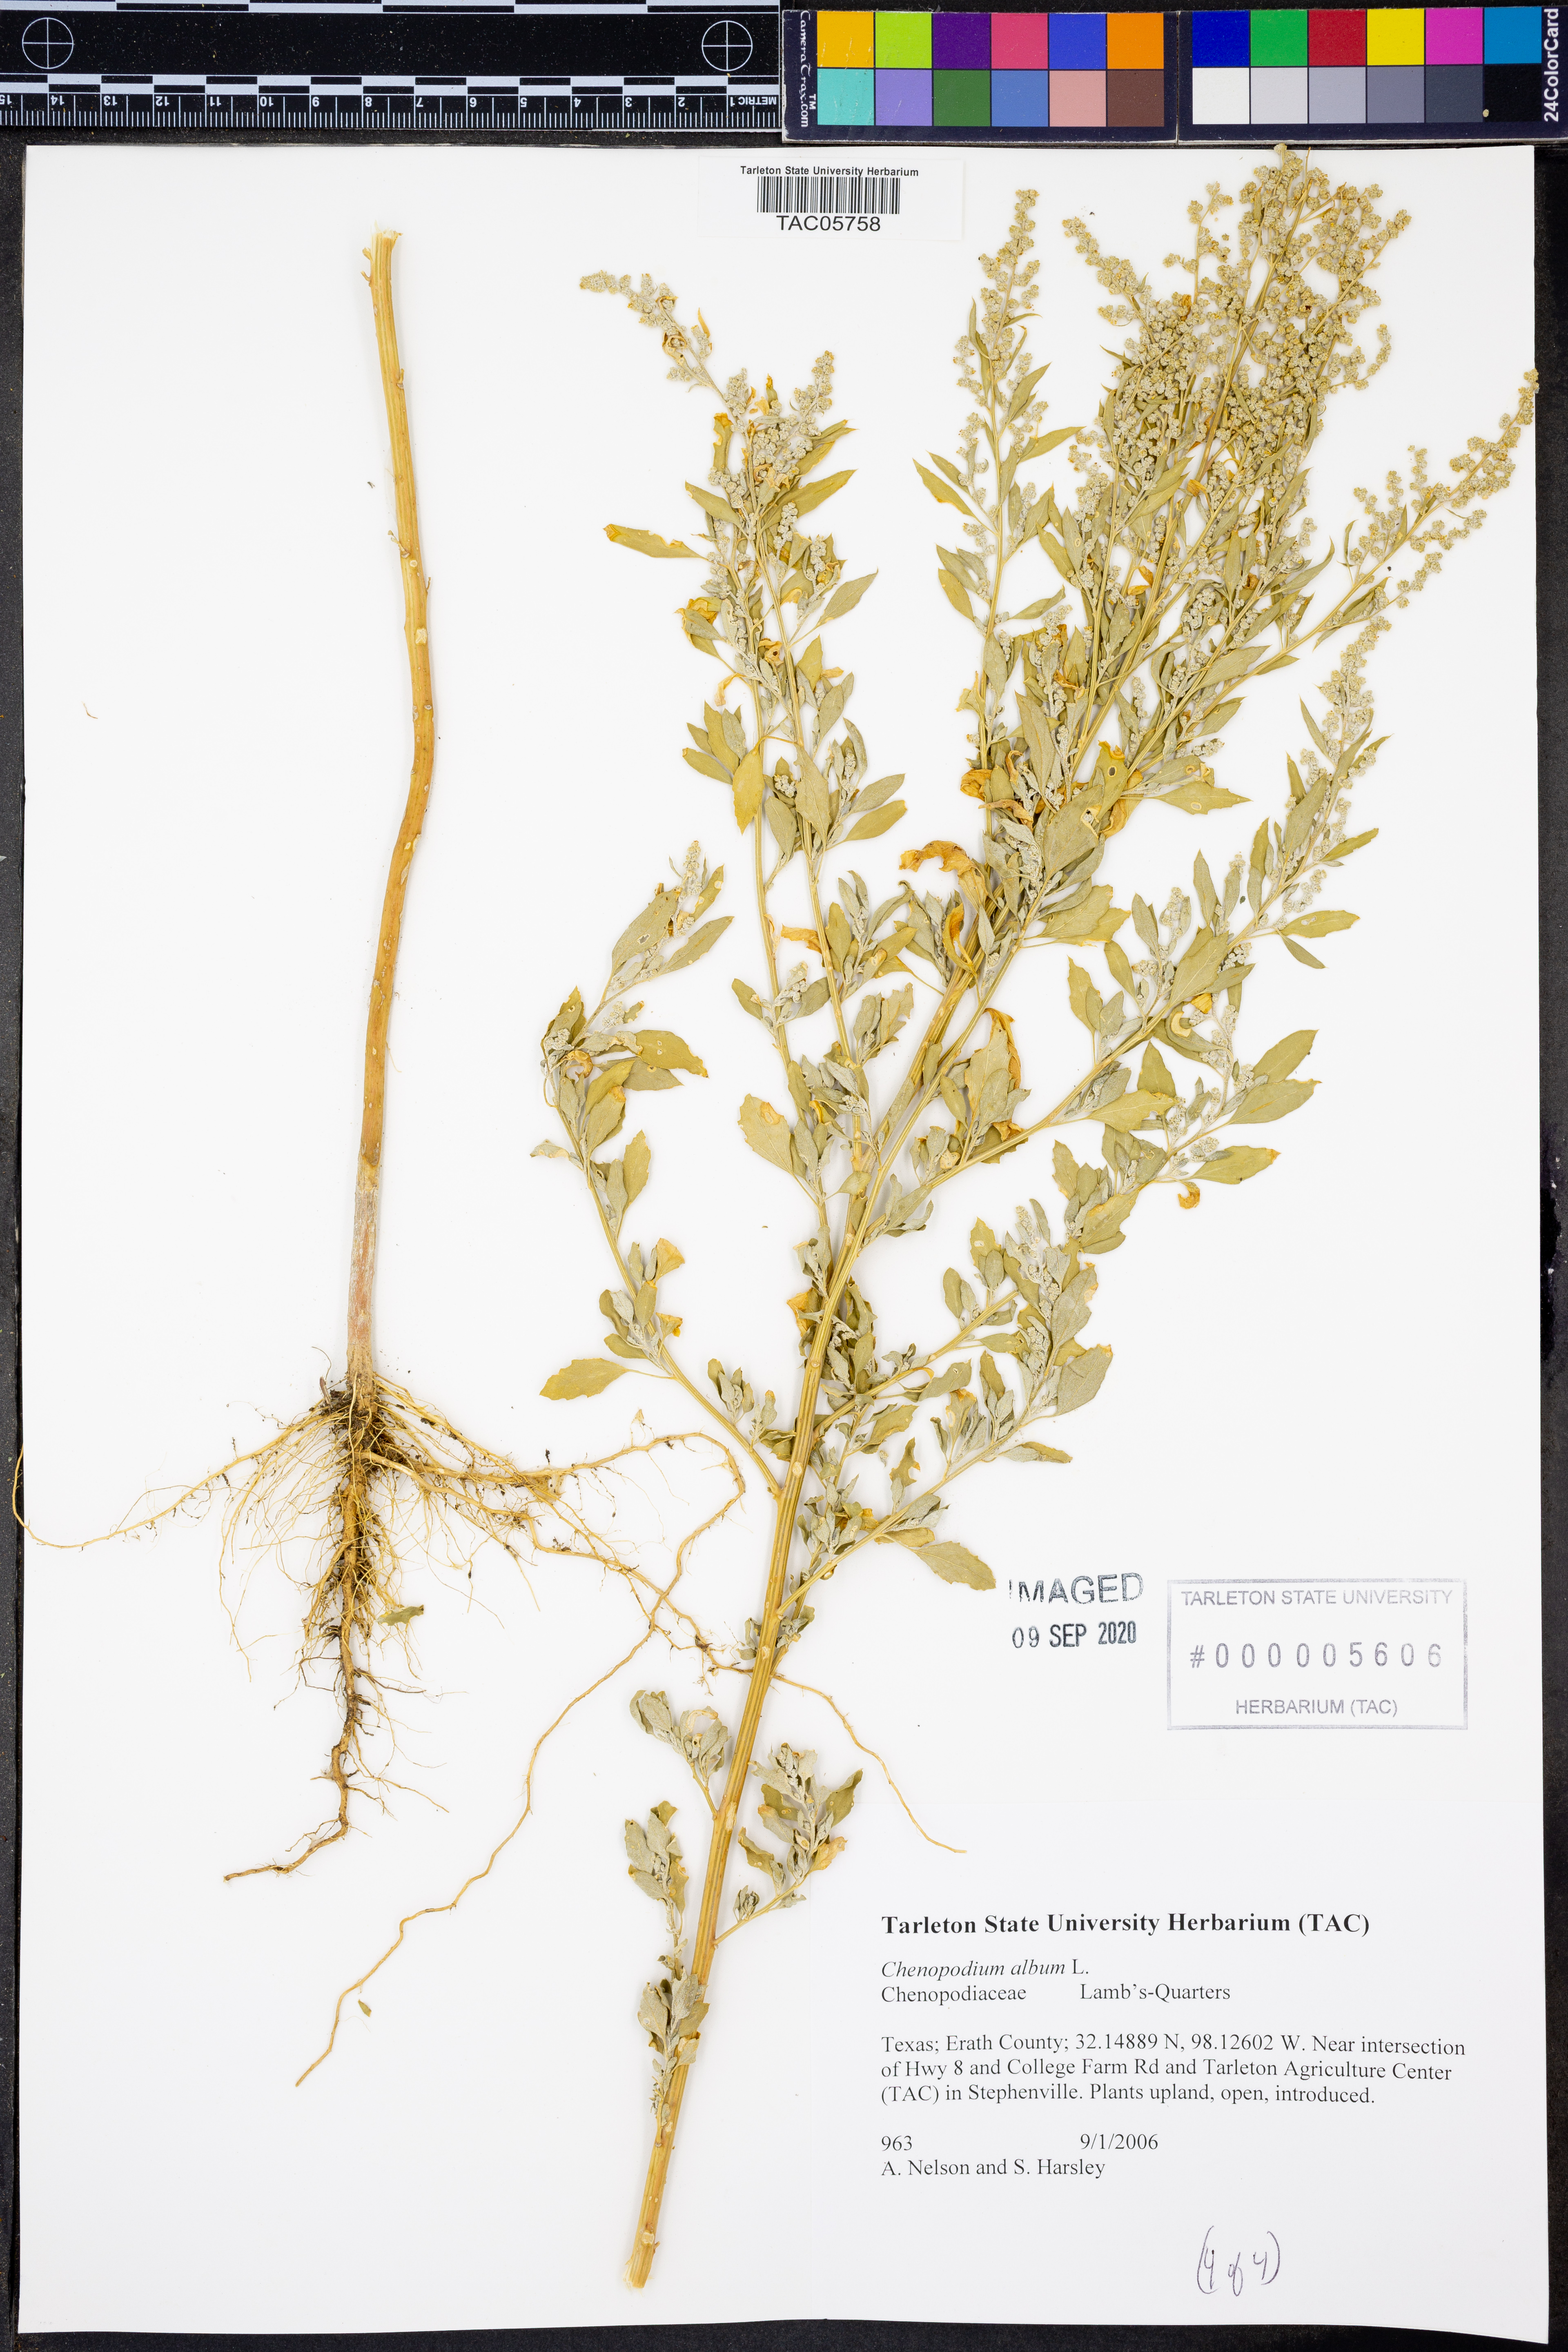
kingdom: Plantae
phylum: Tracheophyta
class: Magnoliopsida
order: Caryophyllales
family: Amaranthaceae
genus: Chenopodium
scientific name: Chenopodium album
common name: Fat-hen
